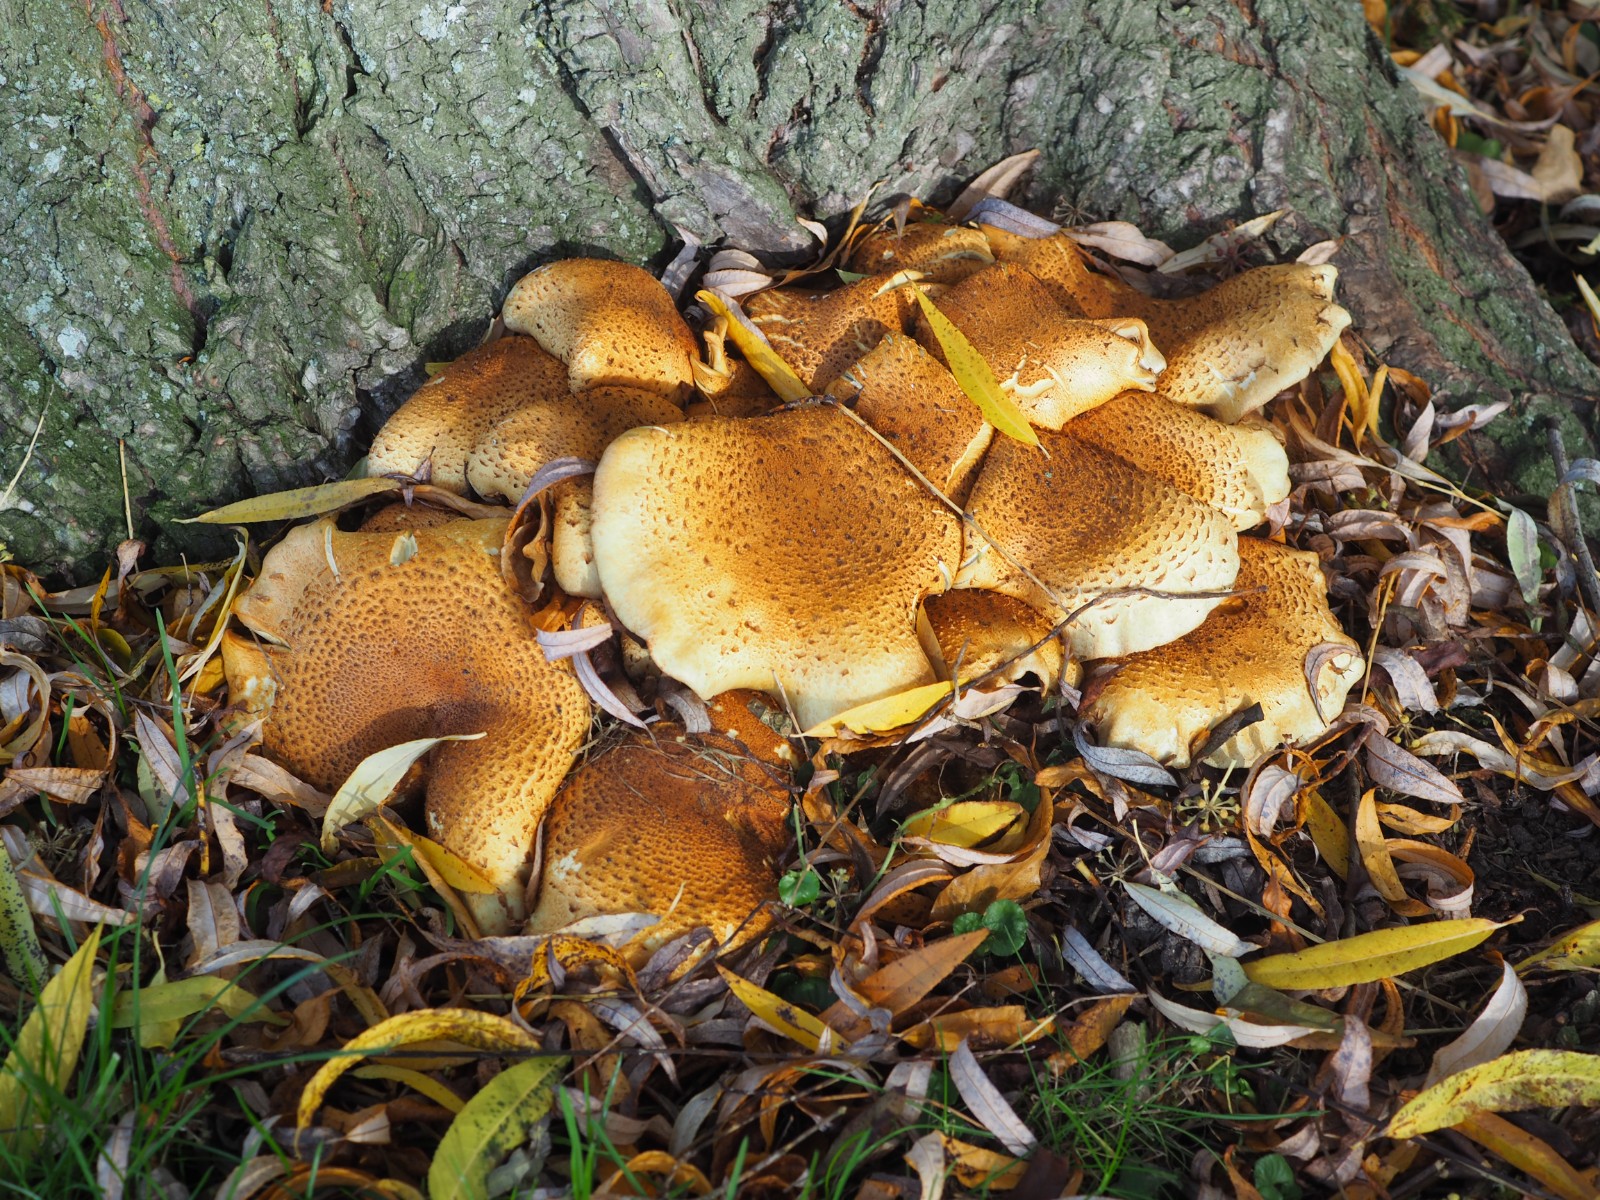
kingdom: Fungi
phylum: Basidiomycota
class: Agaricomycetes
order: Agaricales
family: Strophariaceae
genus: Pholiota
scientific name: Pholiota squarrosa
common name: krumskællet skælhat
